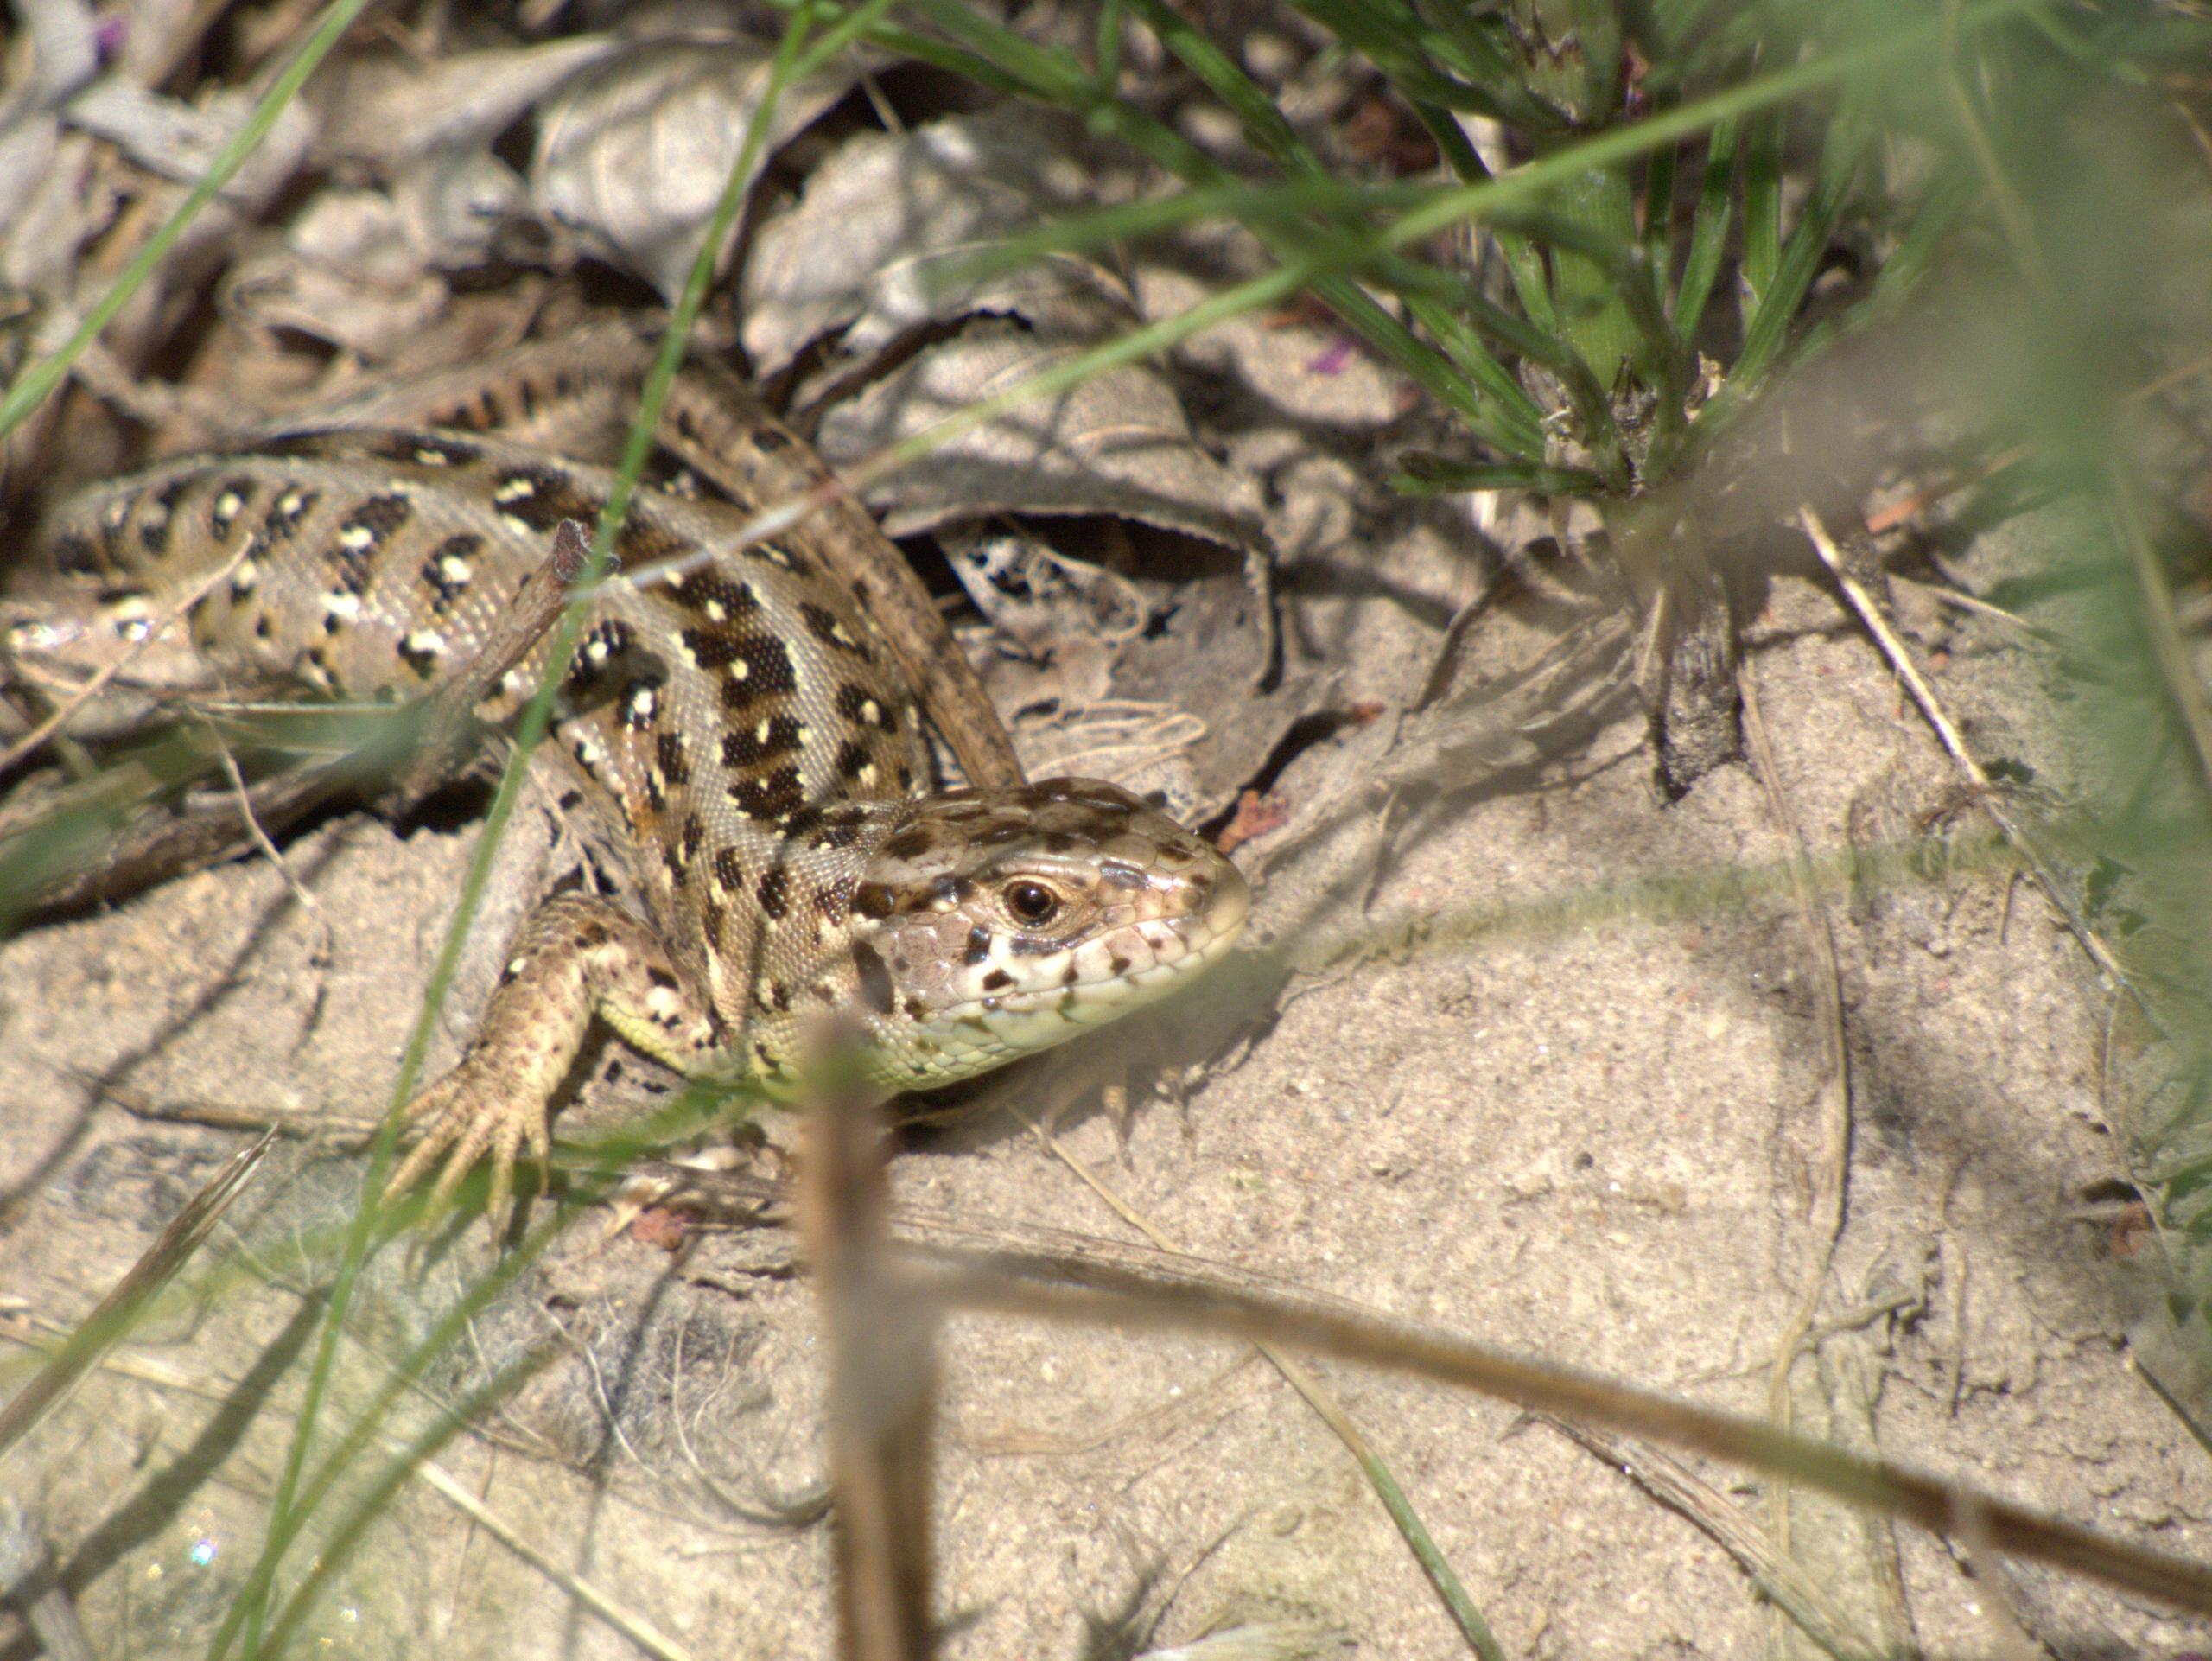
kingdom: Animalia
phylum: Chordata
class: Squamata
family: Lacertidae
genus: Lacerta
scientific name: Lacerta agilis
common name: Markfirben
